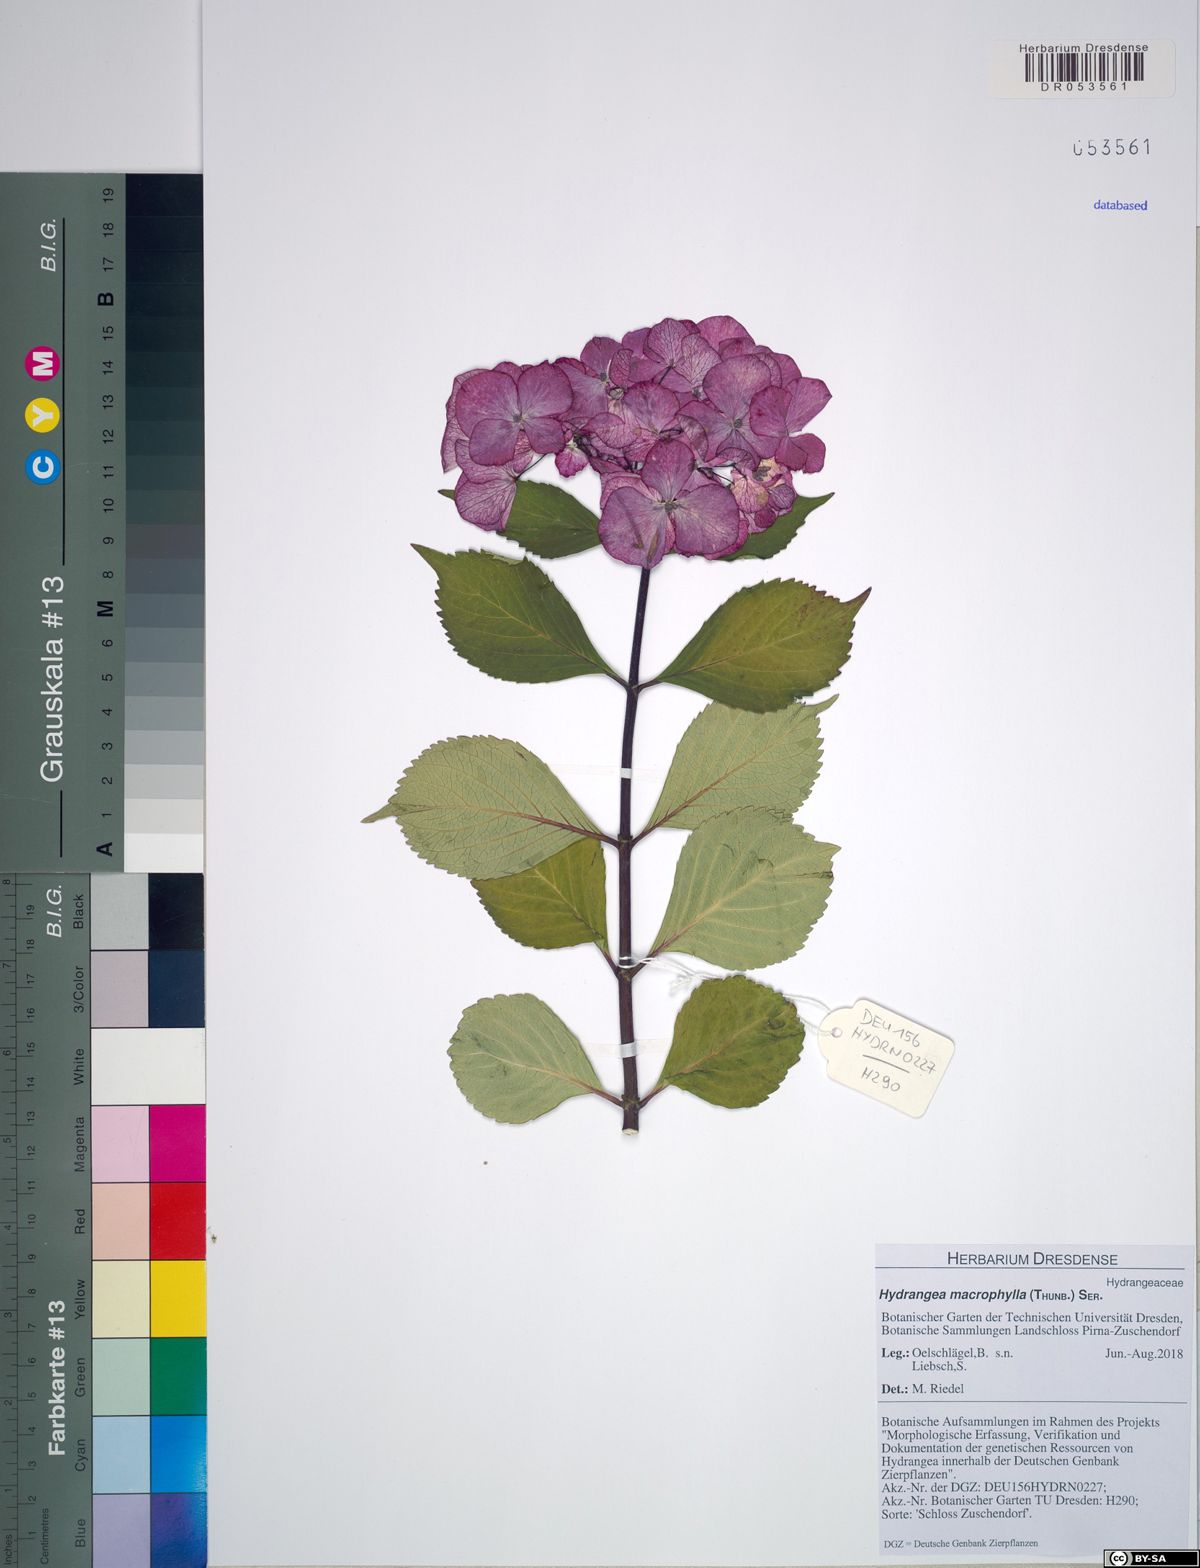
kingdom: Plantae
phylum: Tracheophyta
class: Magnoliopsida
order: Cornales
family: Hydrangeaceae
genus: Hydrangea
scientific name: Hydrangea macrophylla
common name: Hydrangea
